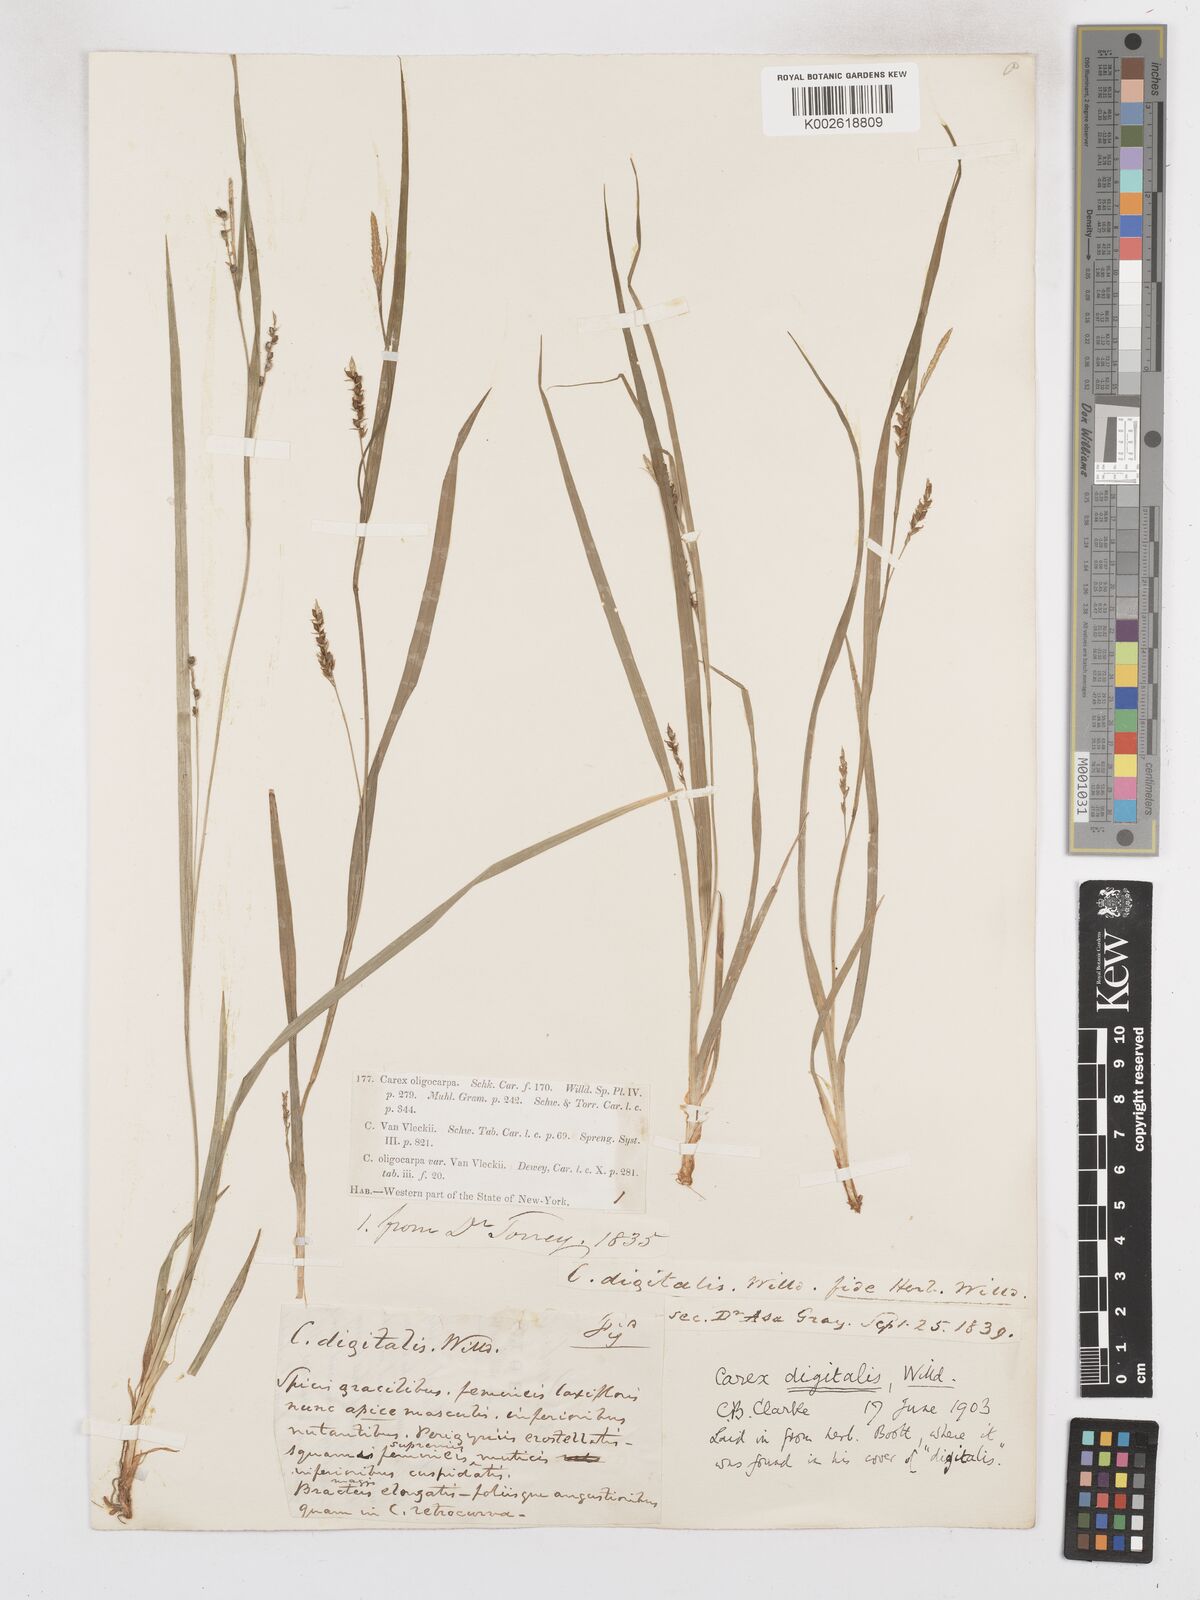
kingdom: Plantae
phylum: Tracheophyta
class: Liliopsida
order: Poales
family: Cyperaceae
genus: Carex
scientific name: Carex digitalis
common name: Slender wood sedge
